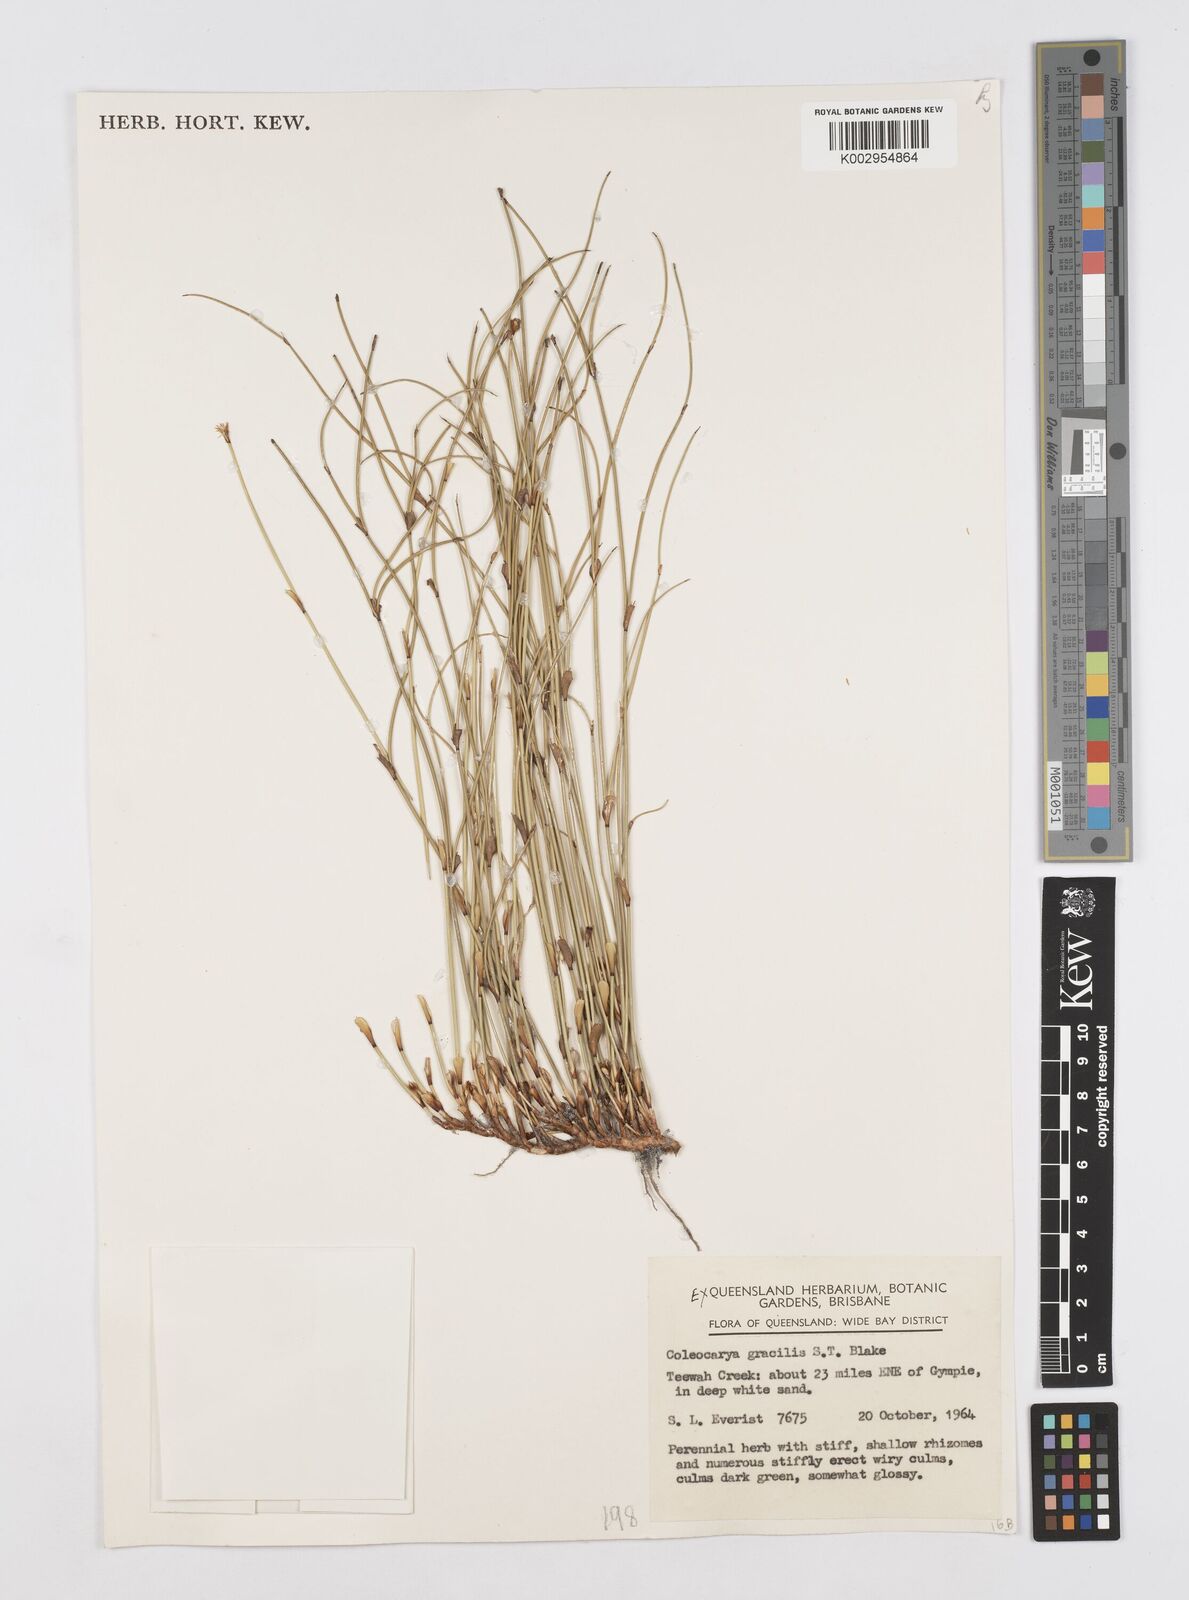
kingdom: Plantae
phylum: Tracheophyta
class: Liliopsida
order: Poales
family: Restionaceae
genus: Coleocarya
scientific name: Coleocarya gracilis
